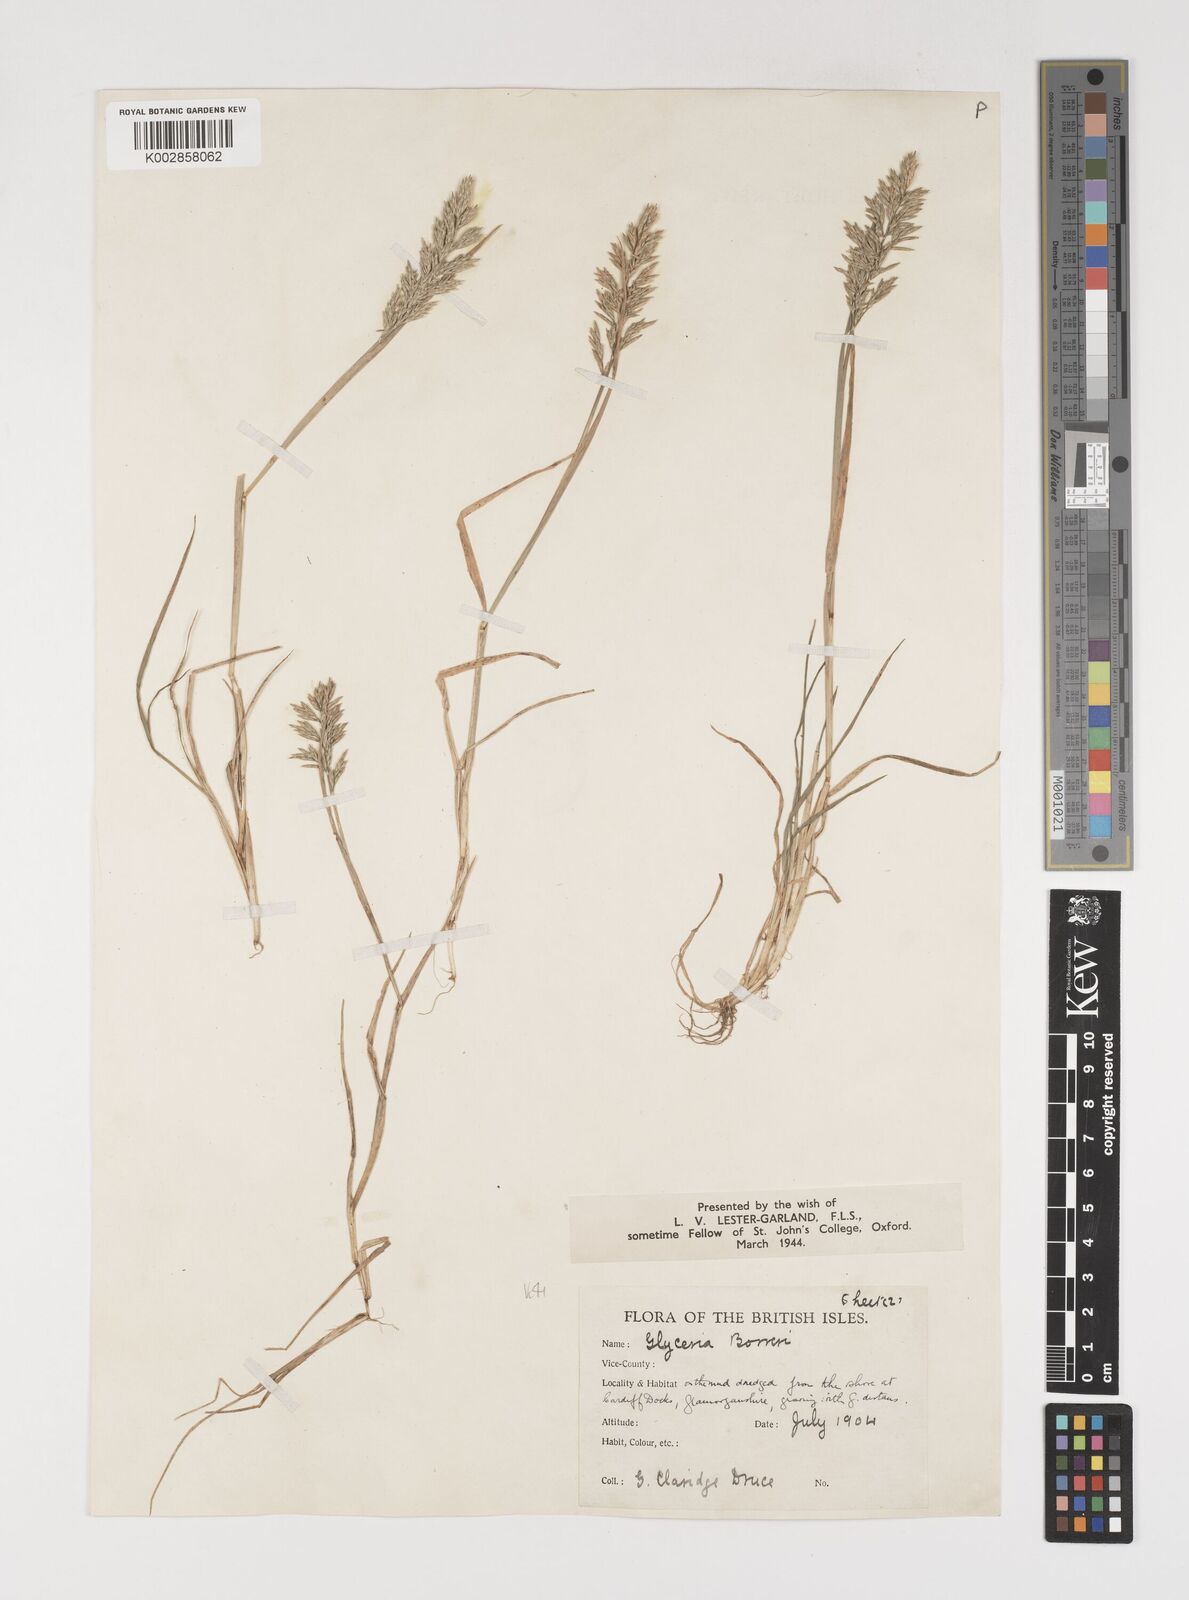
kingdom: Plantae
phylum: Tracheophyta
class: Liliopsida
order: Poales
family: Poaceae
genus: Puccinellia
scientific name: Puccinellia rupestris
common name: Stiff saltmarsh-grass
